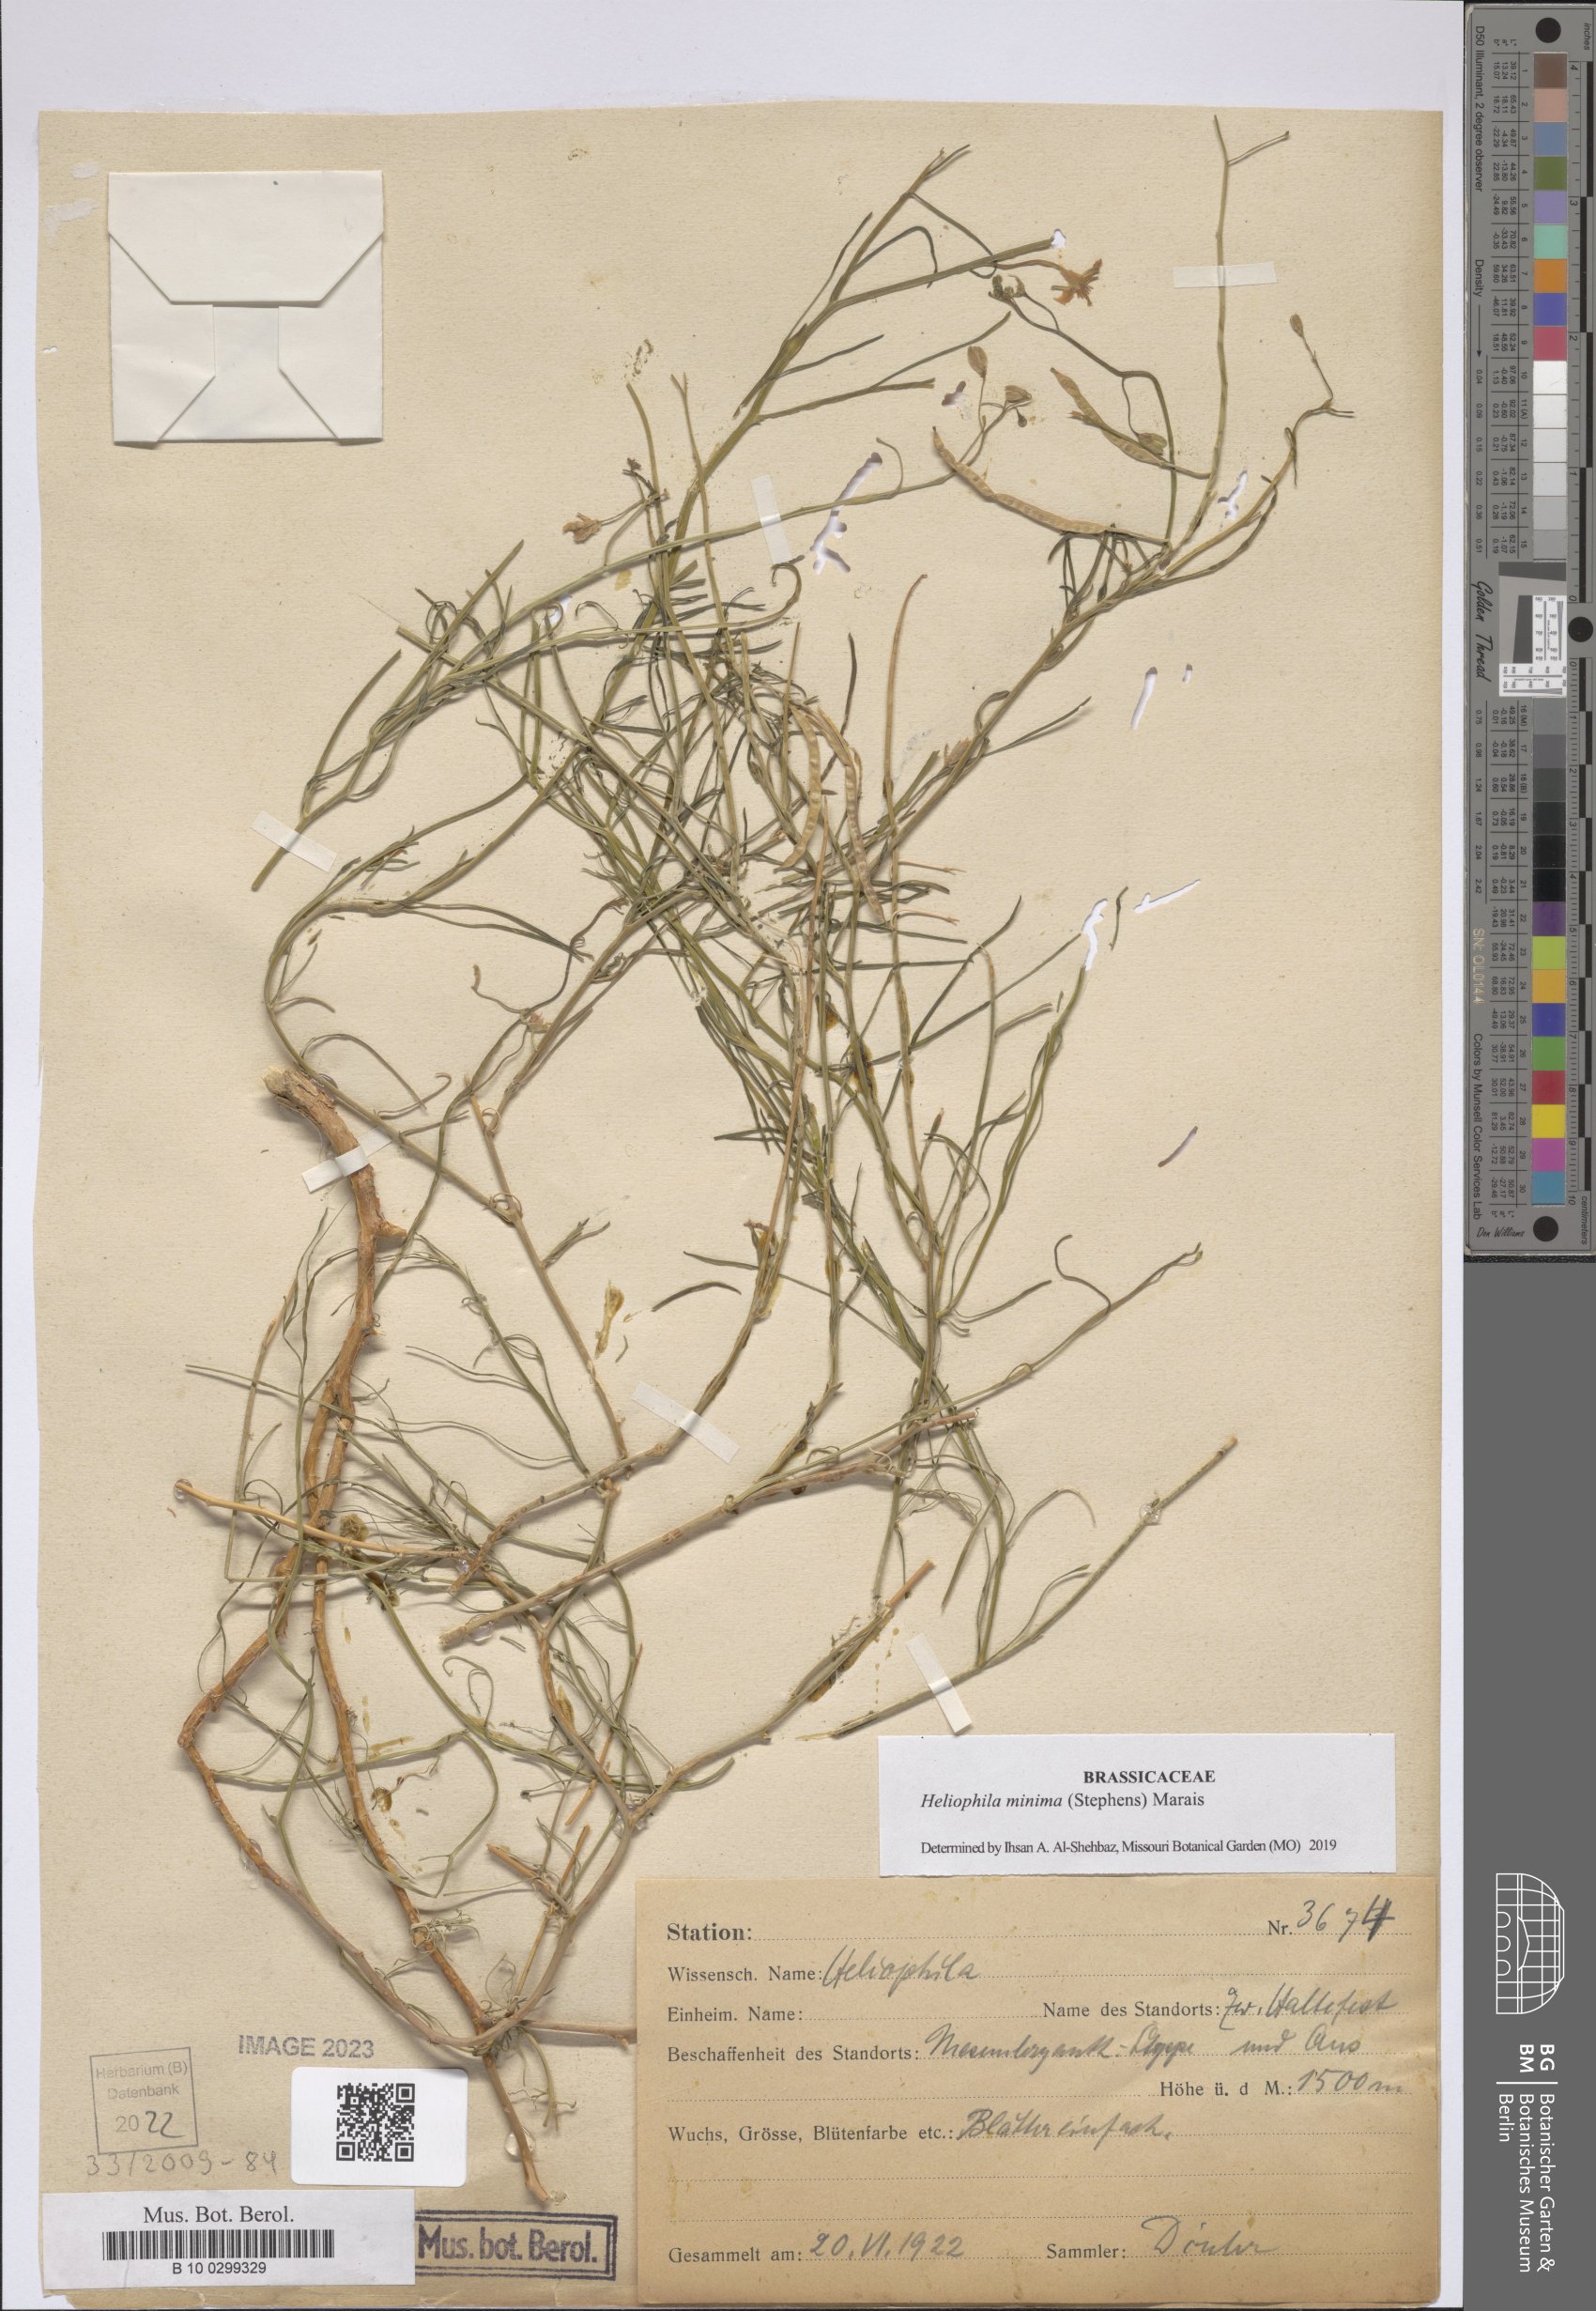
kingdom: Plantae
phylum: Tracheophyta
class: Magnoliopsida
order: Brassicales
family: Brassicaceae
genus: Heliophila
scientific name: Heliophila minima
